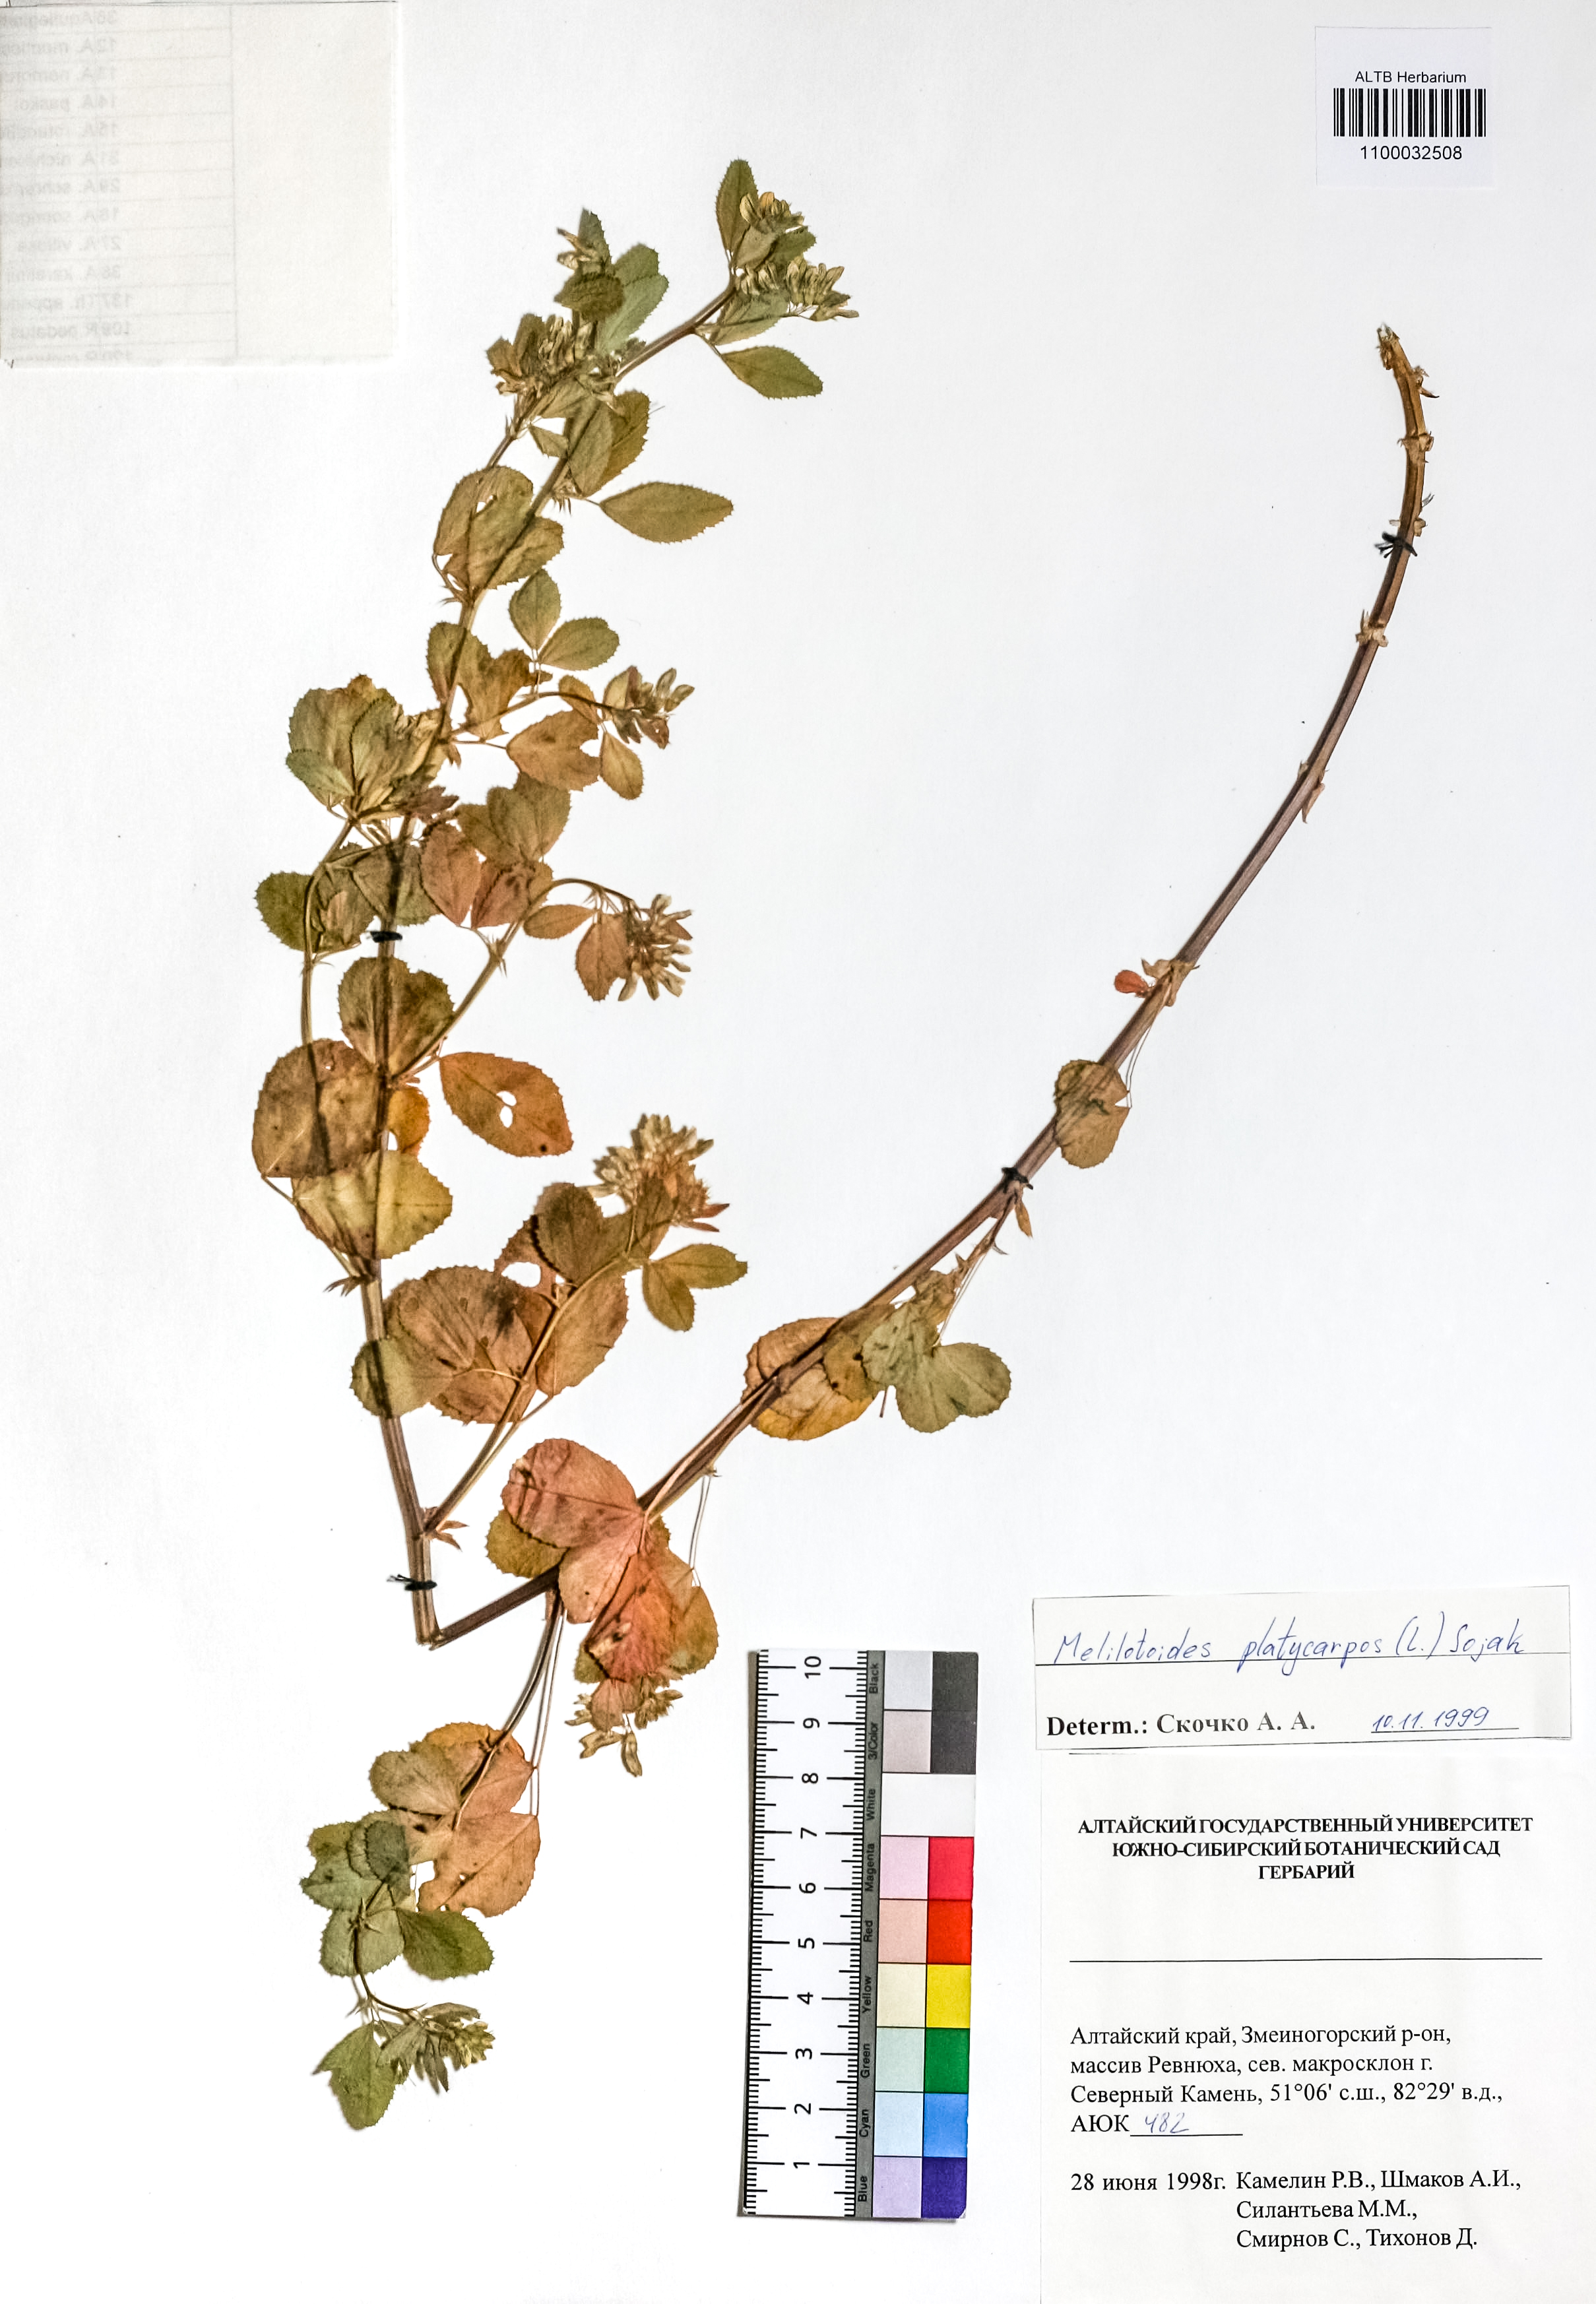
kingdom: Plantae
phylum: Tracheophyta
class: Magnoliopsida
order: Fabales
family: Fabaceae
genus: Medicago
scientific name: Medicago platycarpos
